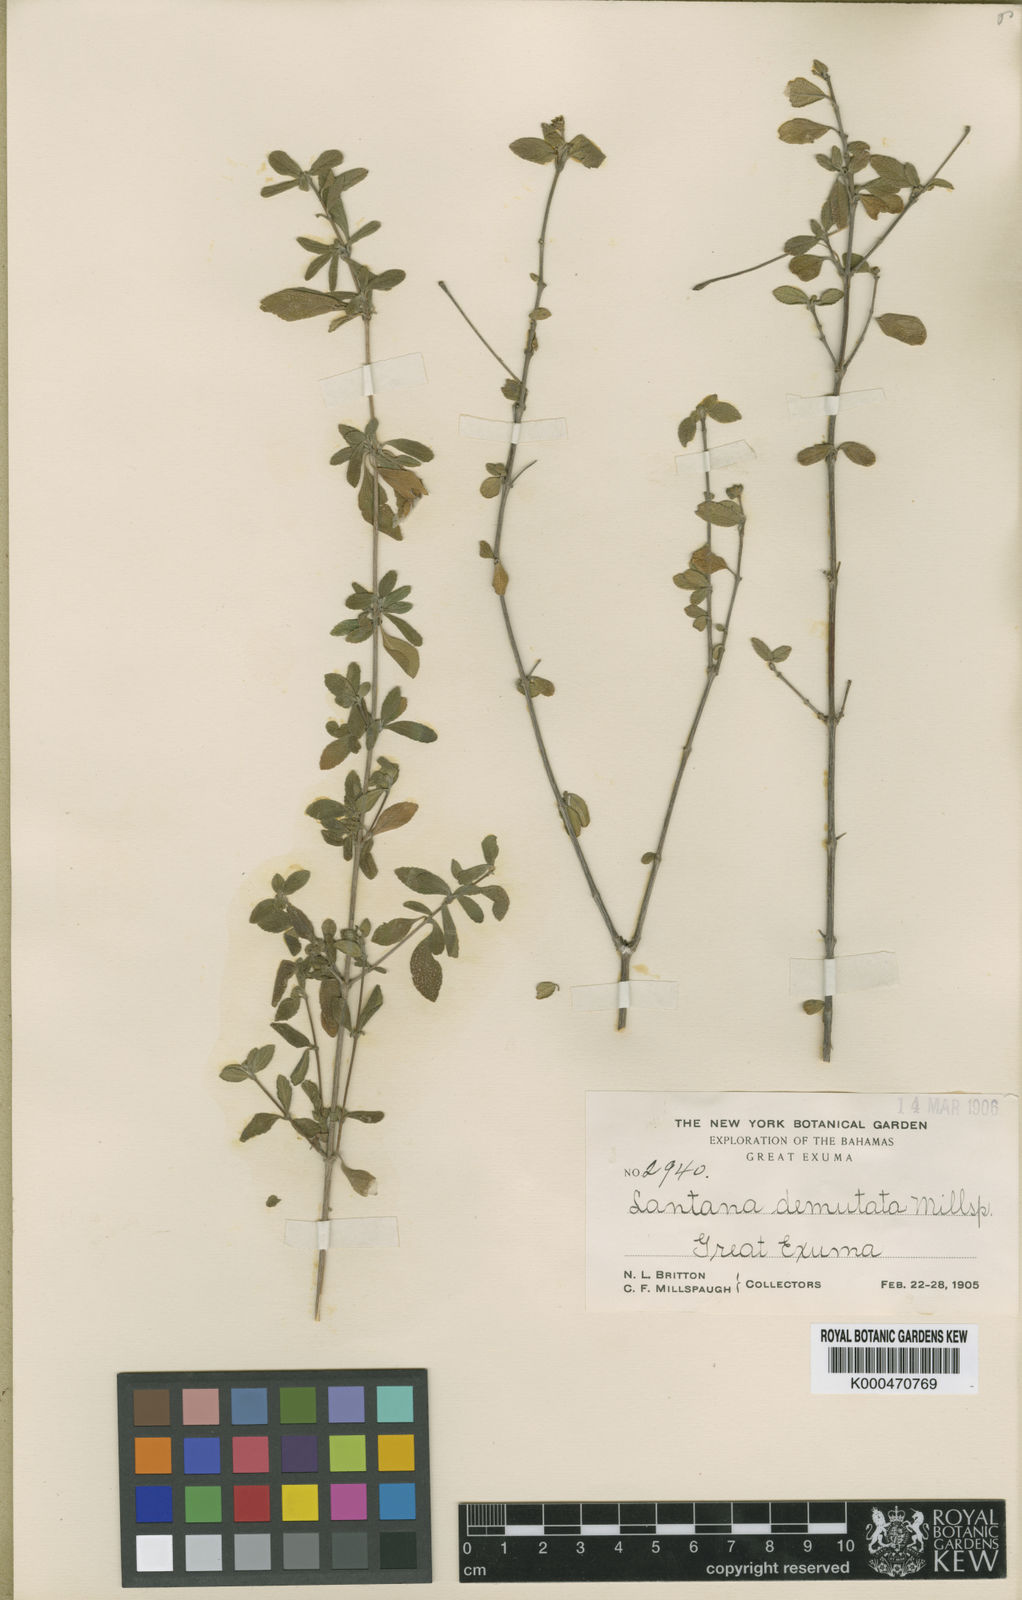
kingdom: Plantae
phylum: Tracheophyta
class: Magnoliopsida
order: Lamiales
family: Verbenaceae
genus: Lantana
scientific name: Lantana demutata
